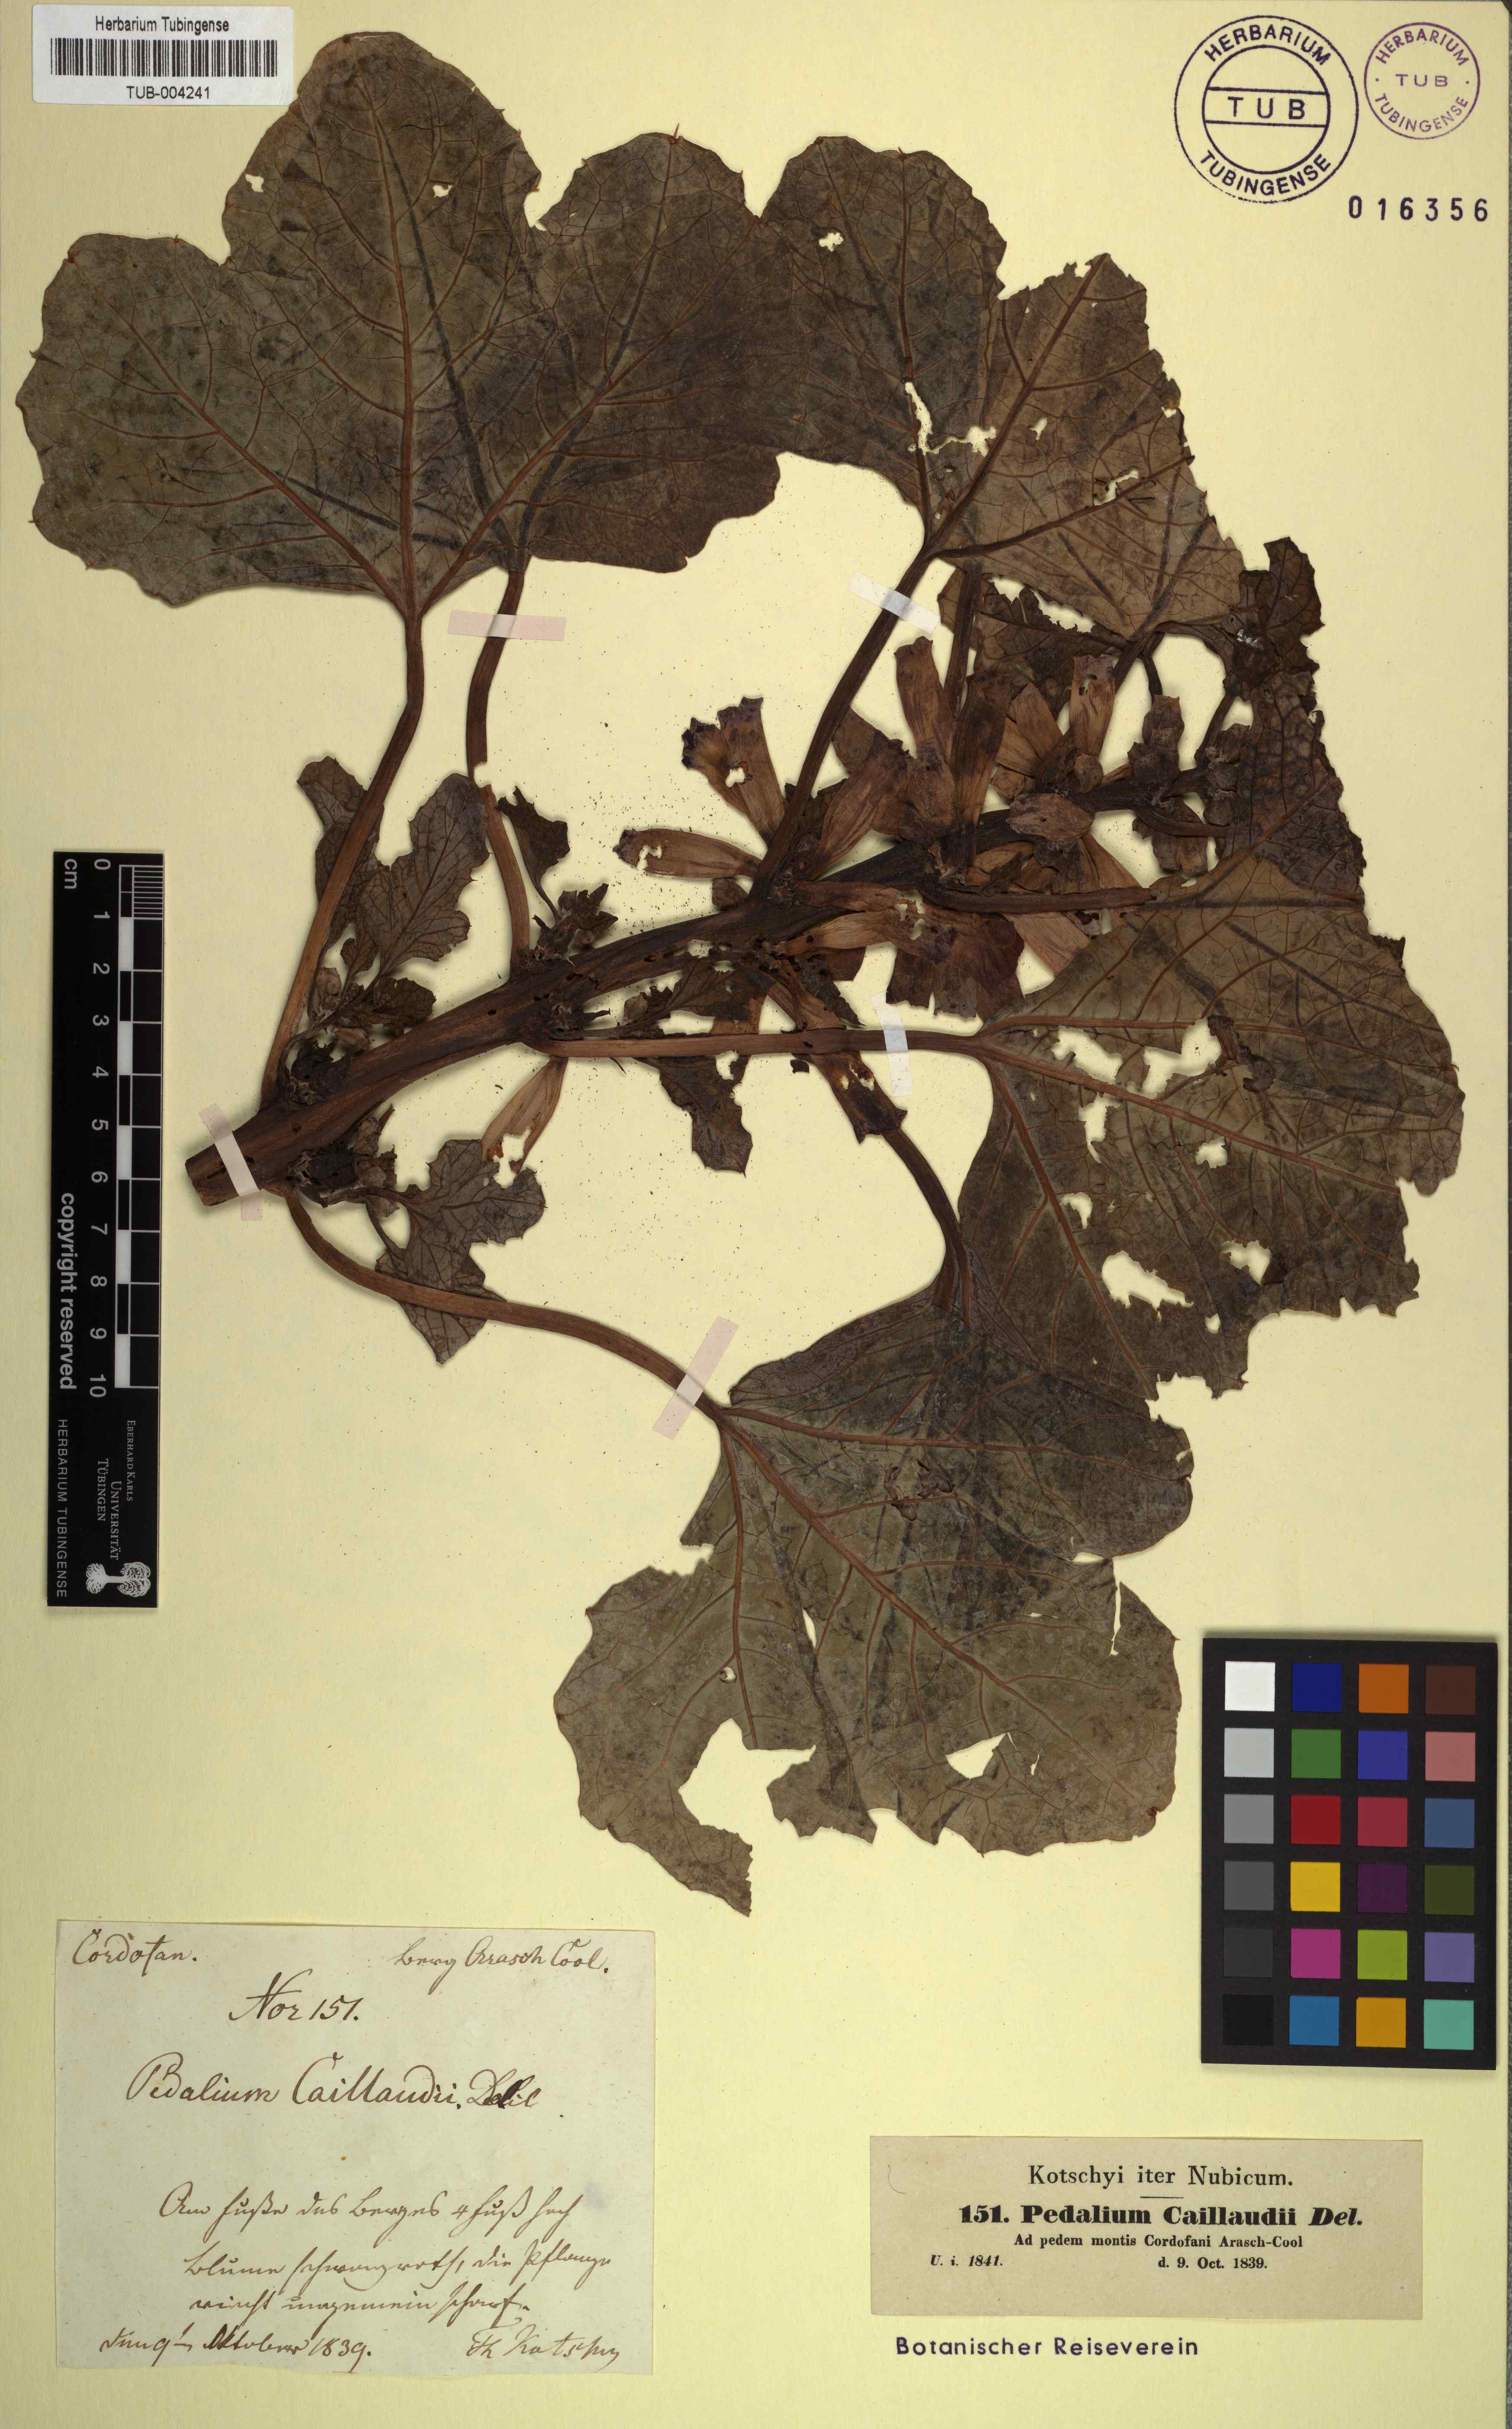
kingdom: Plantae
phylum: Tracheophyta
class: Magnoliopsida
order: Lamiales
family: Pedaliaceae
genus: Rogeria
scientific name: Rogeria adenophylla
